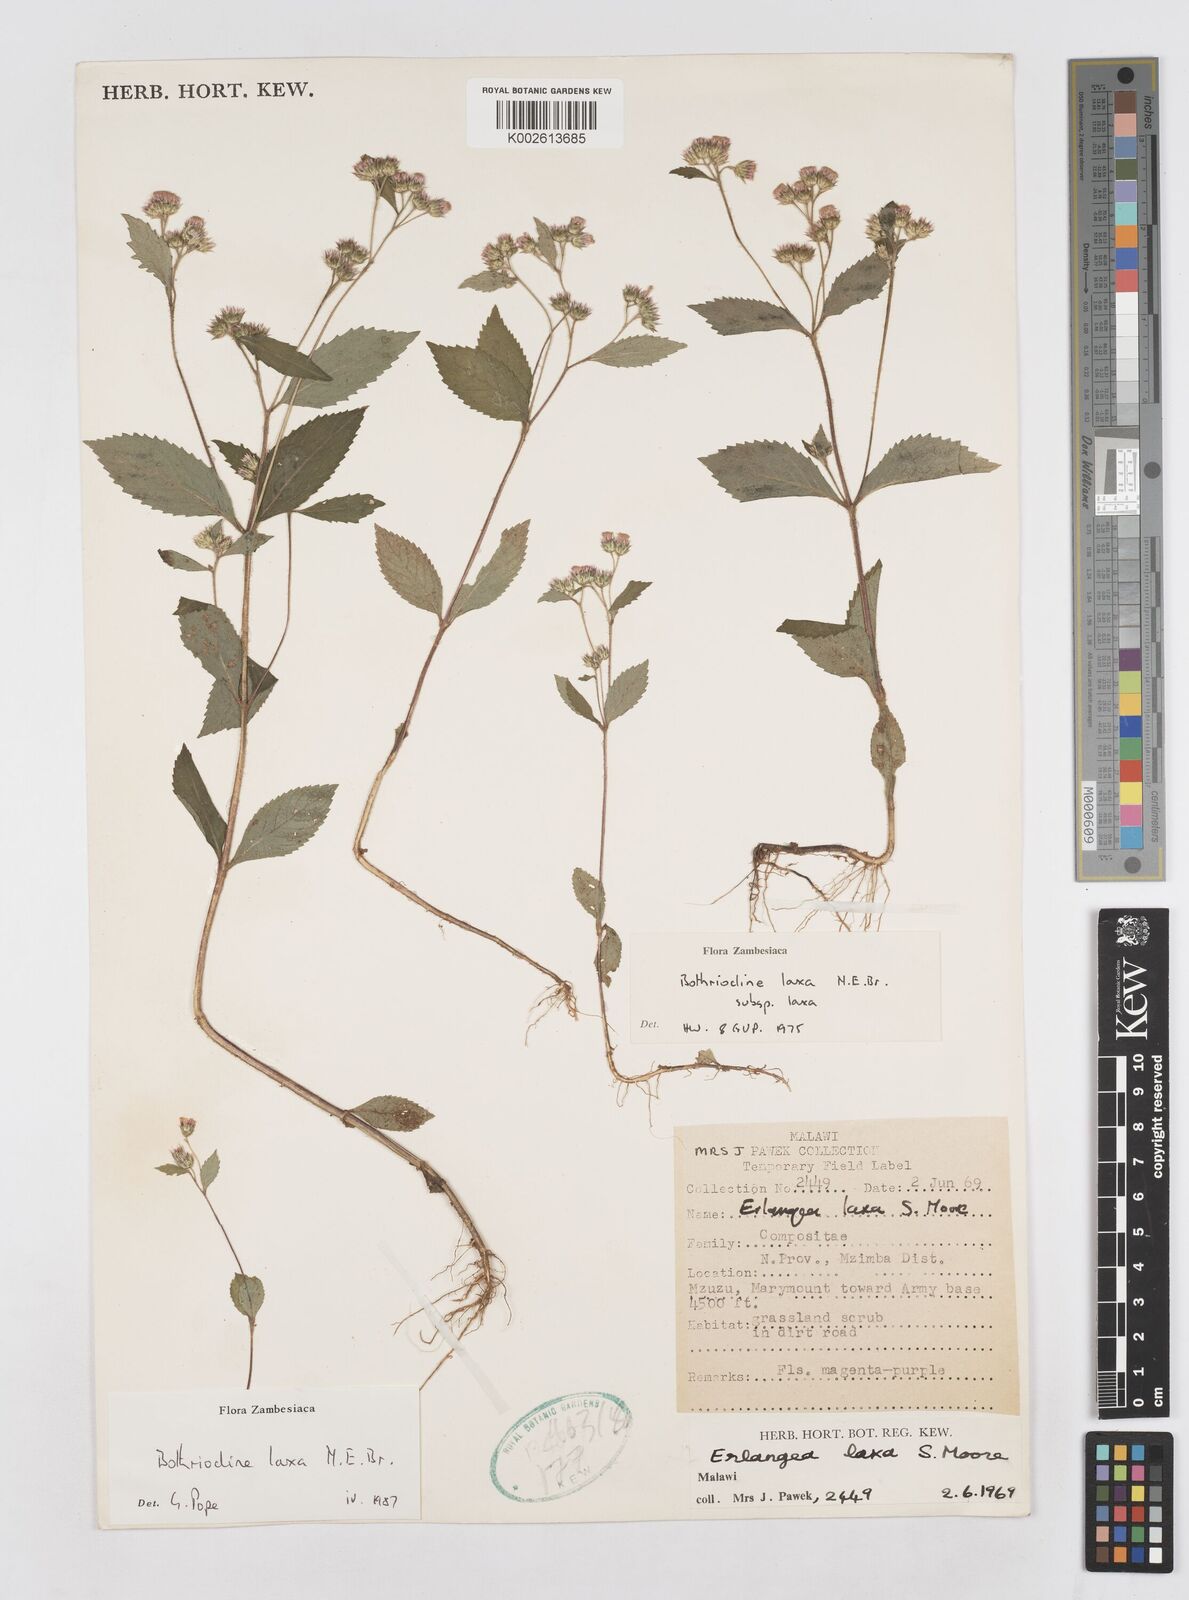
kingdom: Plantae
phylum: Tracheophyta
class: Magnoliopsida
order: Asterales
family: Asteraceae
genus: Bothriocline
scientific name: Bothriocline laxa
